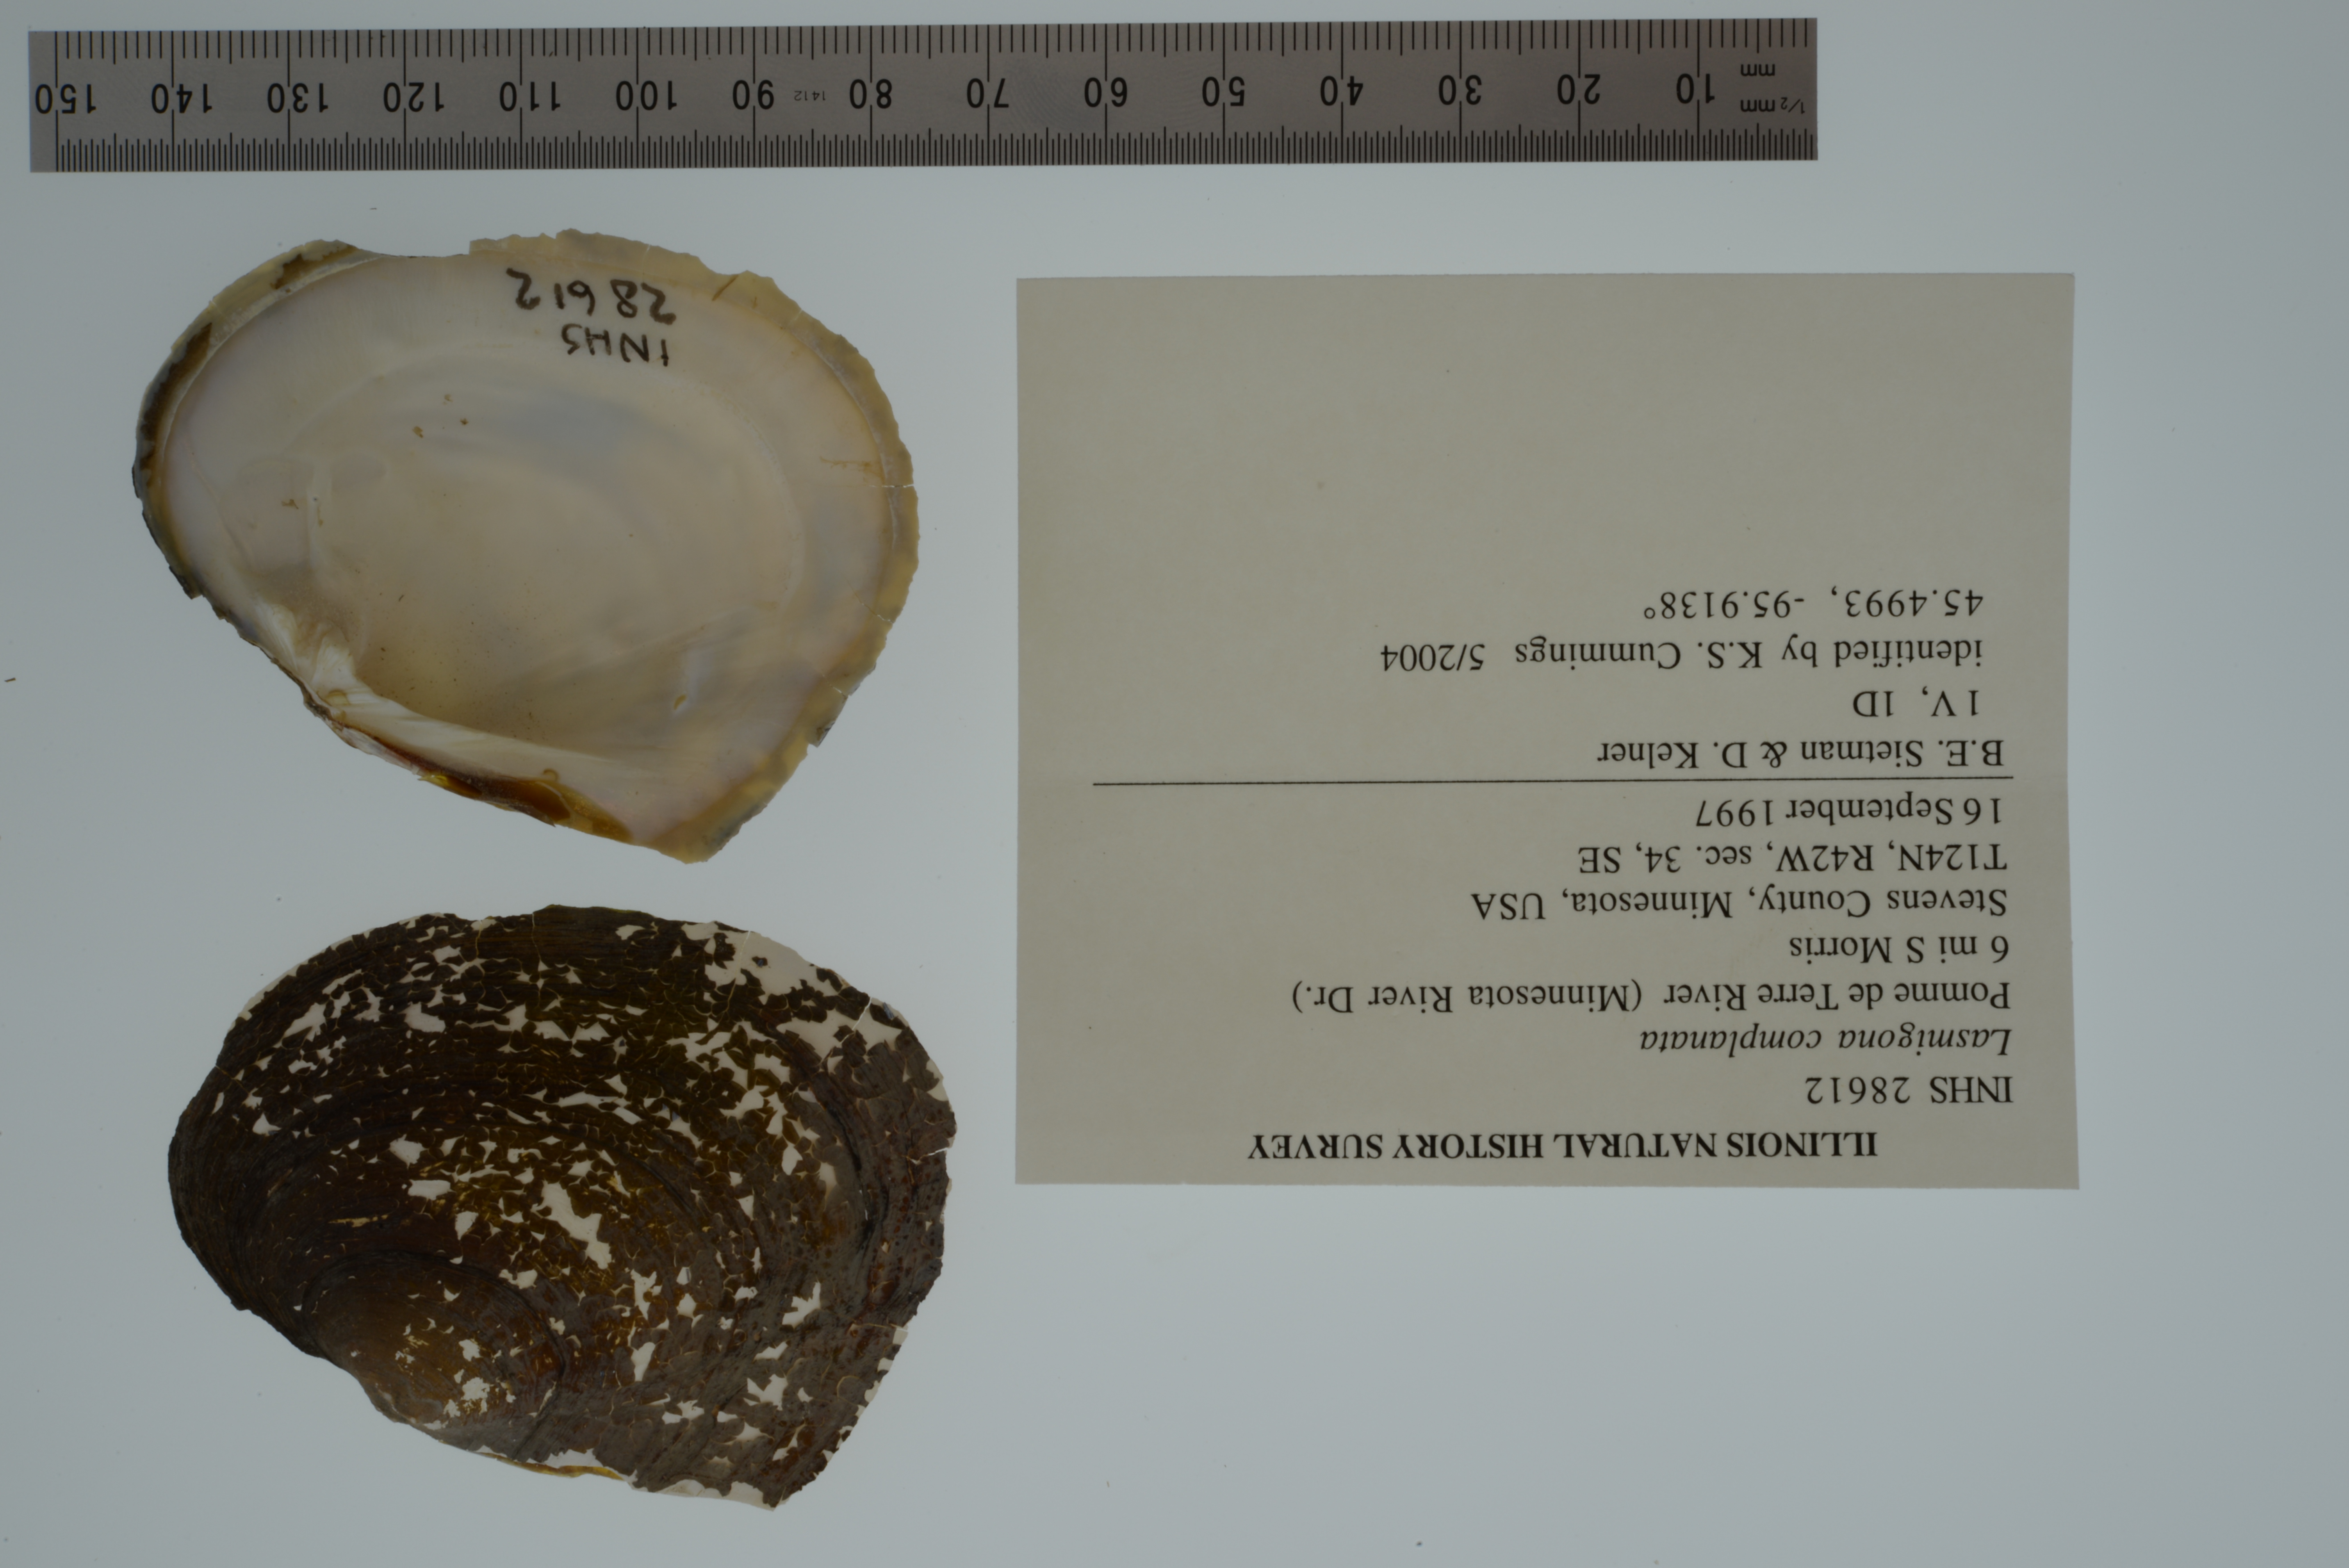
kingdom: Animalia
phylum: Mollusca
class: Bivalvia
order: Unionida
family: Unionidae
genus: Lasmigona
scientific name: Lasmigona complanata
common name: White heelsplitter
